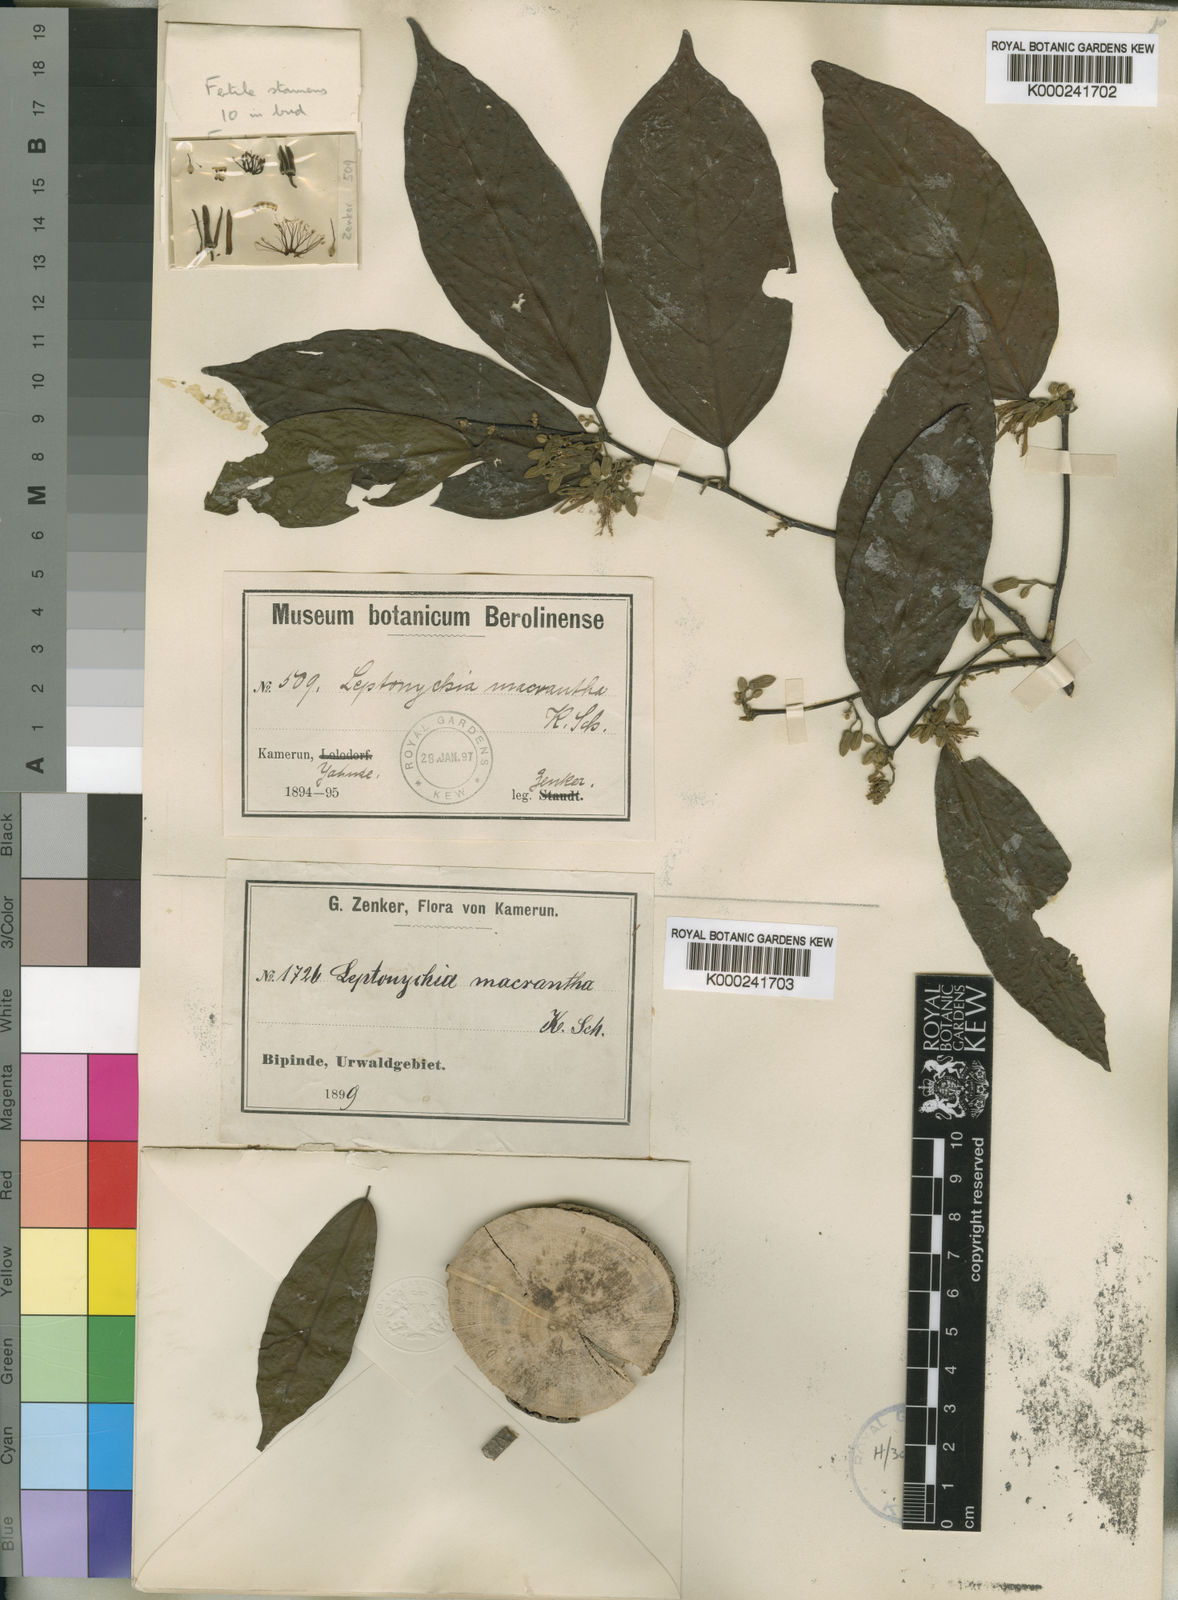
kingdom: Plantae
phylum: Tracheophyta
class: Magnoliopsida
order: Malvales
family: Malvaceae
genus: Leptonychia
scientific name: Leptonychia macrantha
